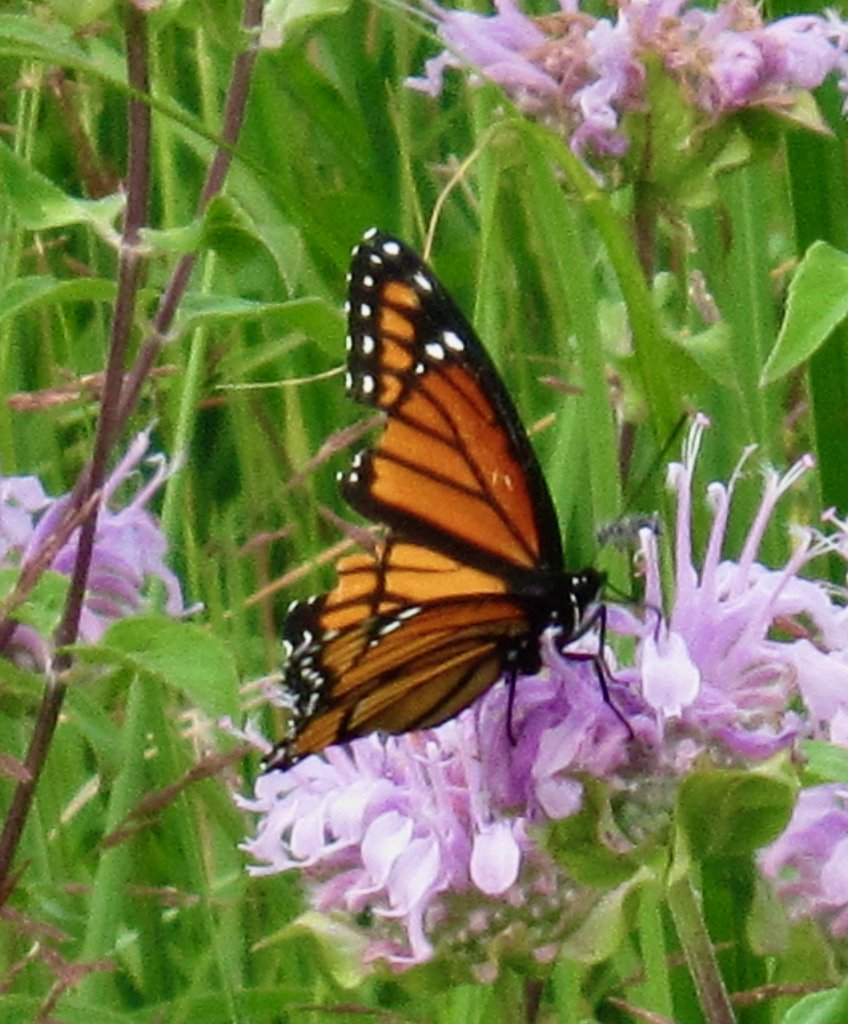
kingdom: Animalia
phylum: Arthropoda
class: Insecta
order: Lepidoptera
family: Nymphalidae
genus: Limenitis
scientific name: Limenitis archippus
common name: Viceroy
